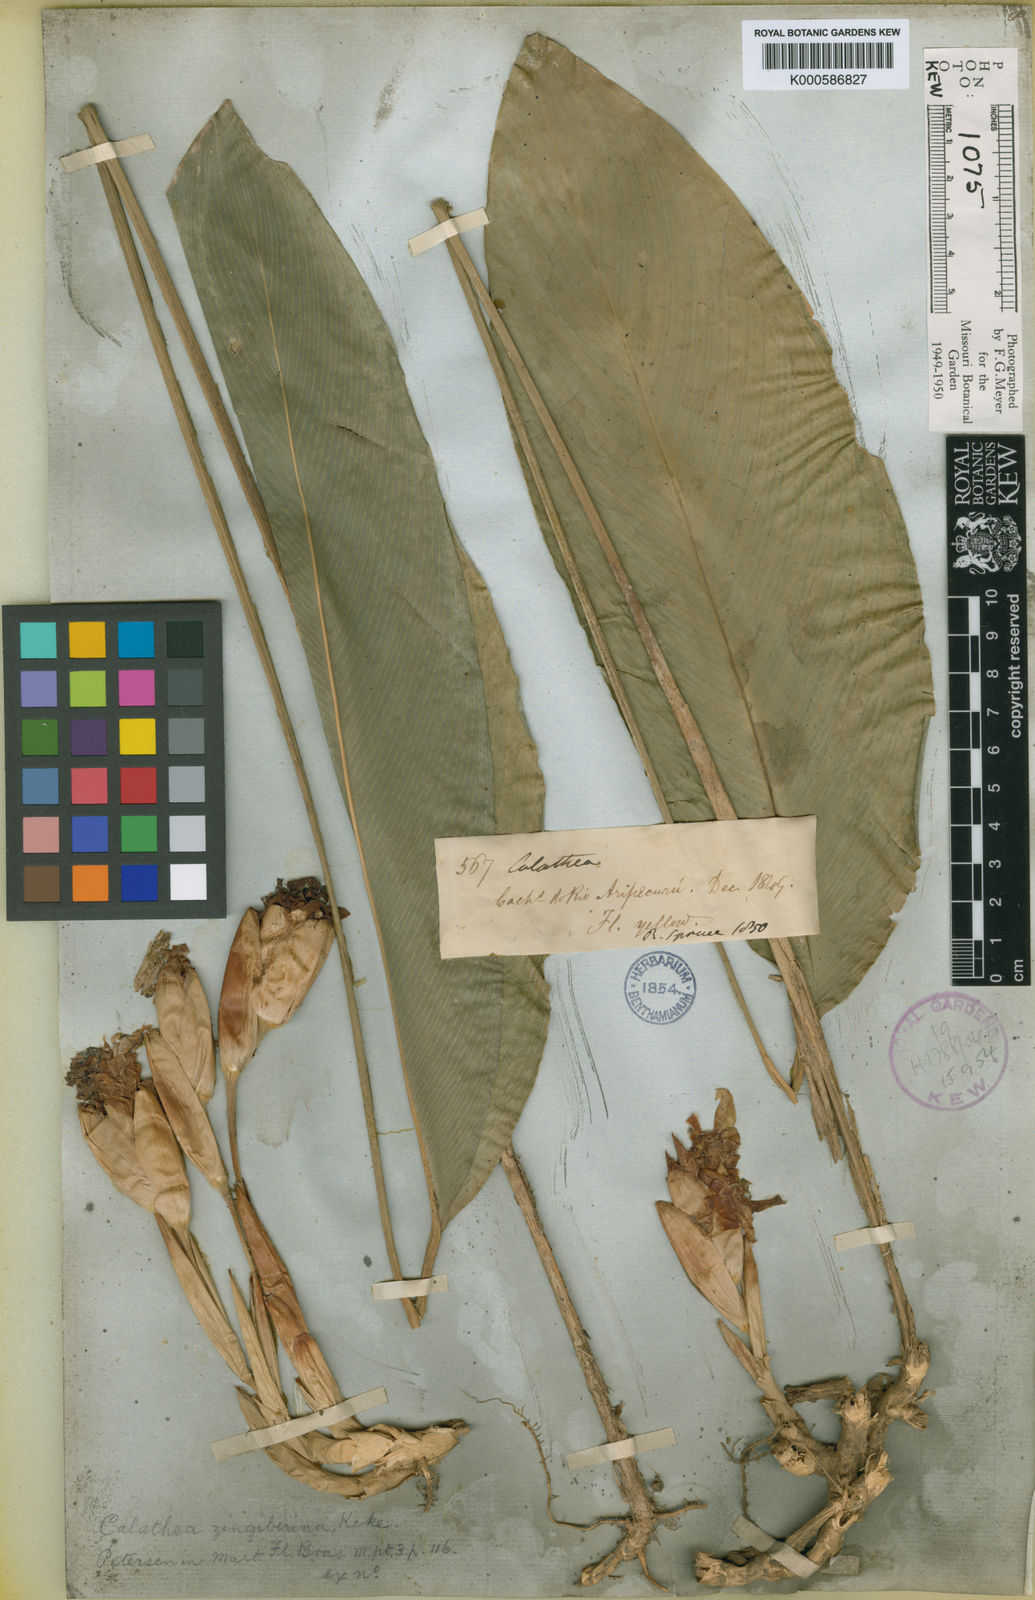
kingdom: Plantae
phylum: Tracheophyta
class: Liliopsida
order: Zingiberales
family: Marantaceae
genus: Calathea
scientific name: Calathea
